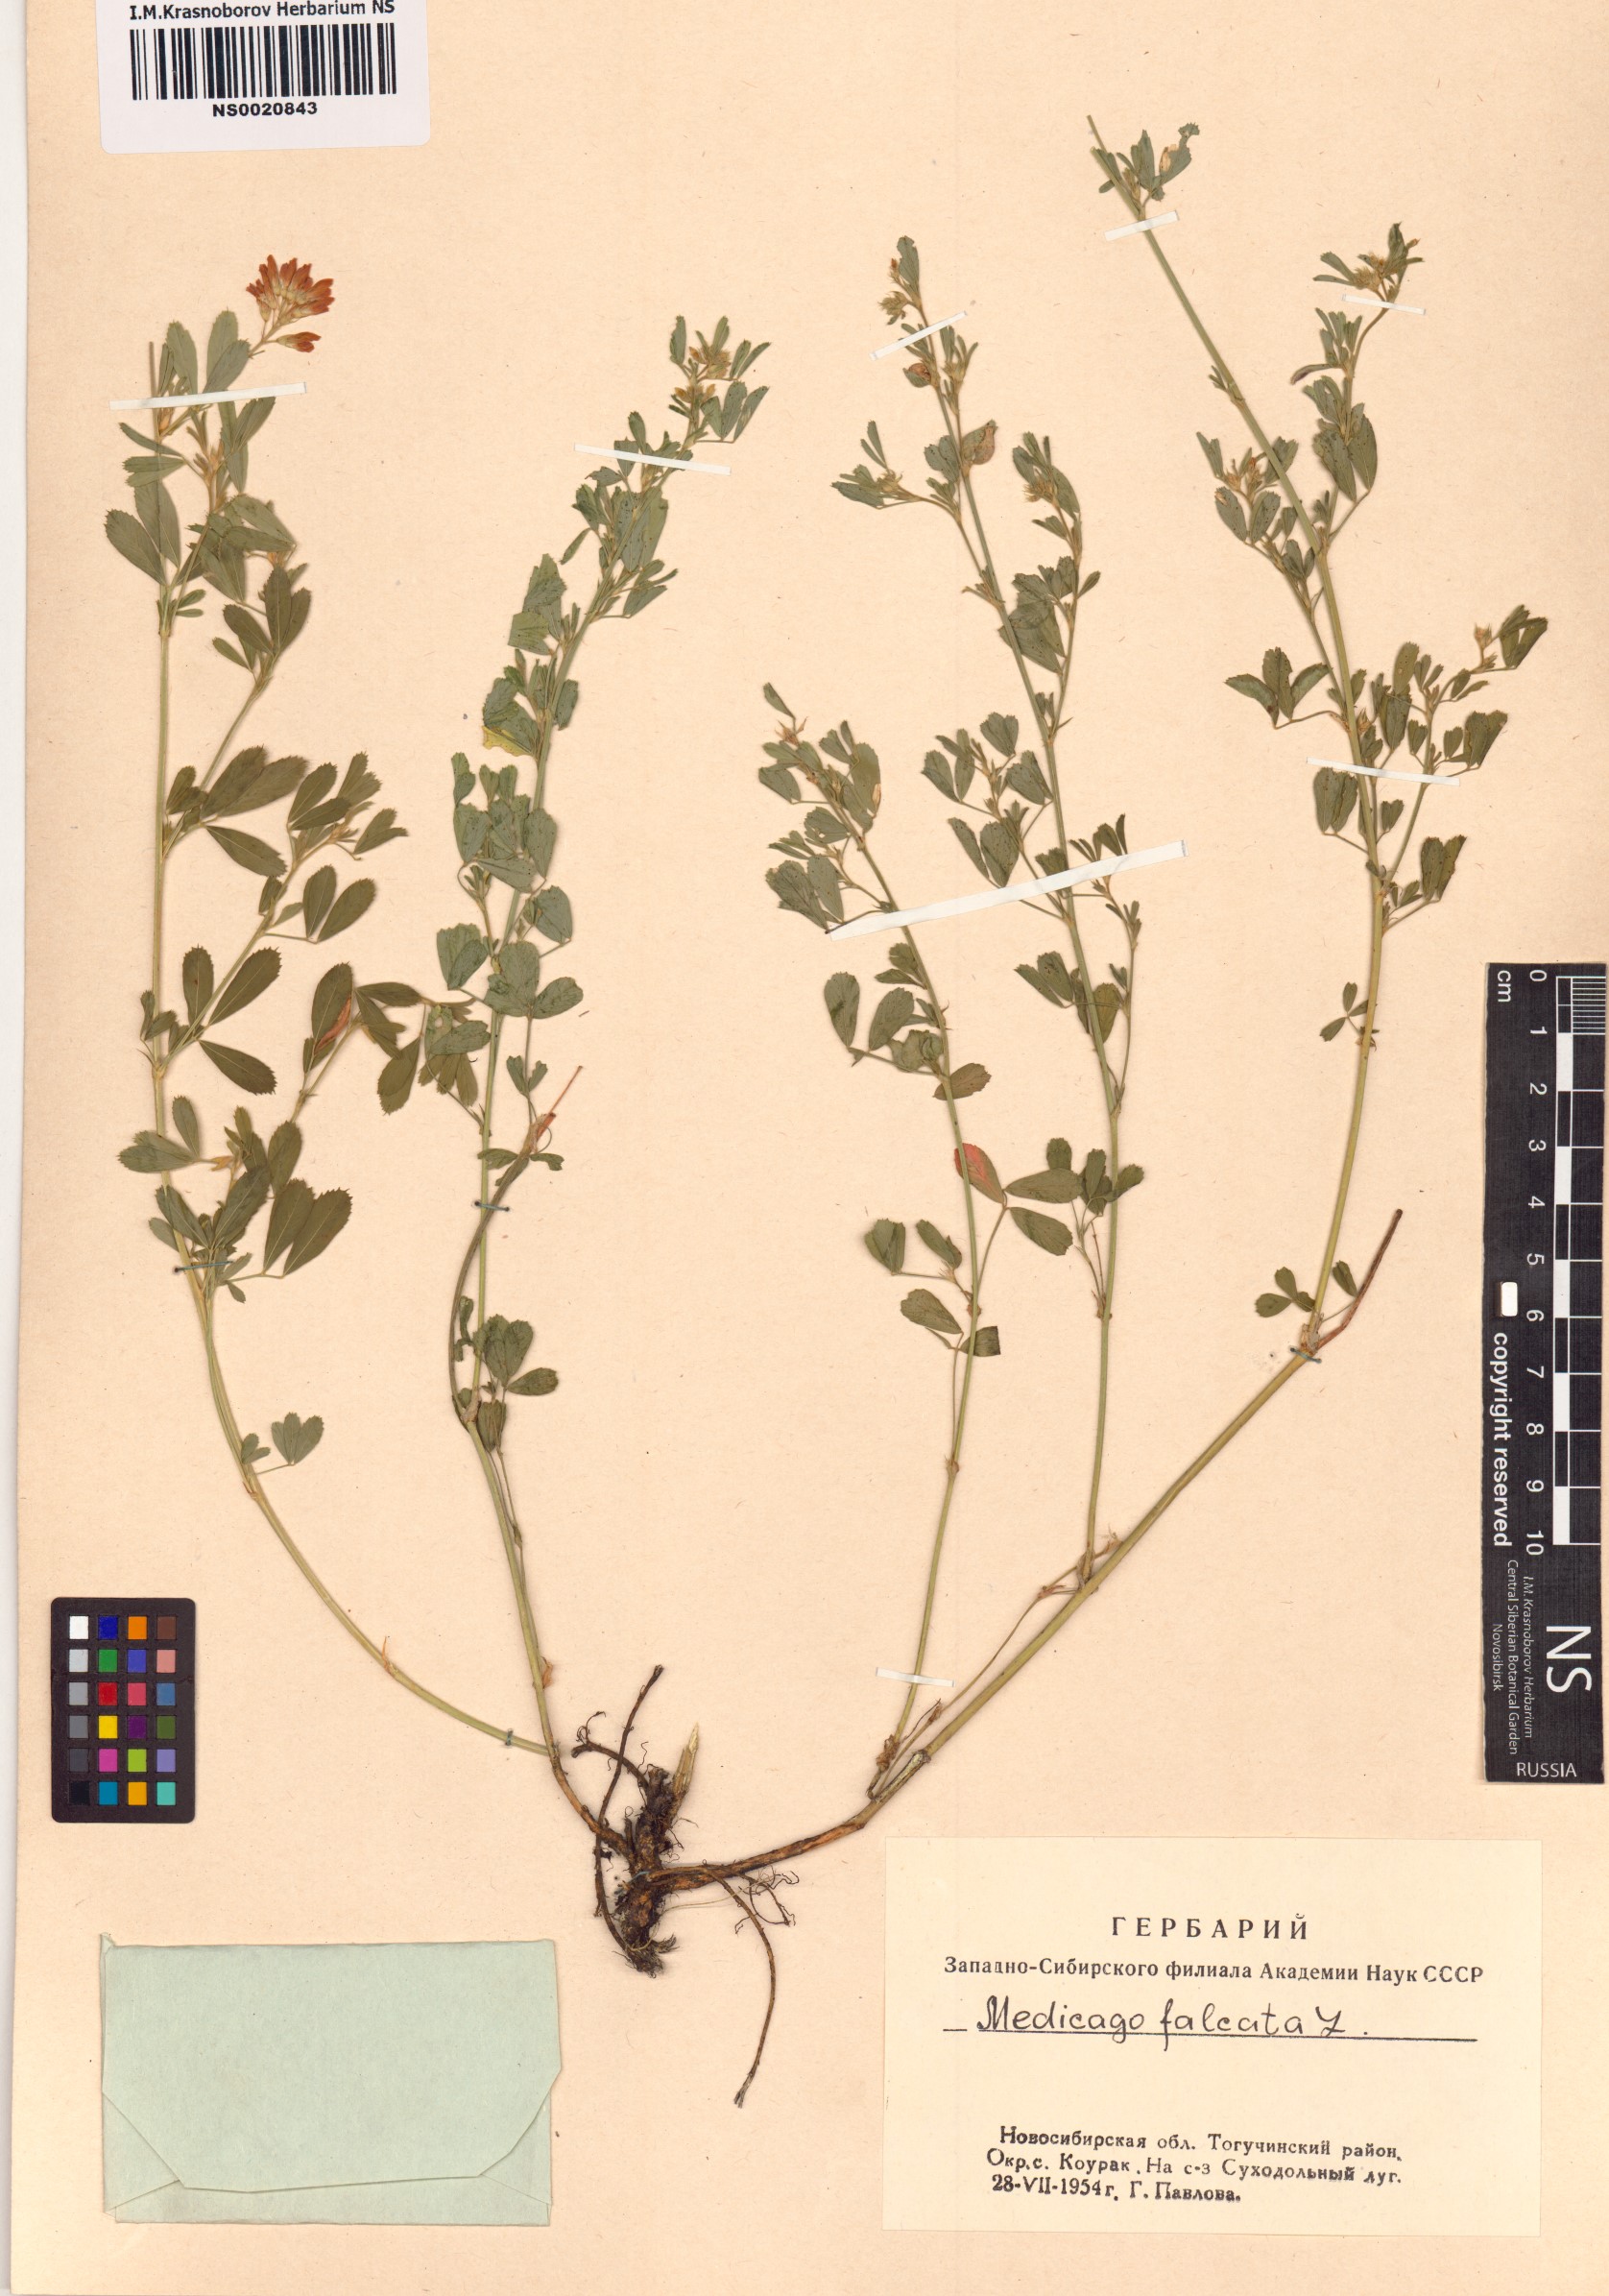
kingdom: Plantae
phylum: Tracheophyta
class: Magnoliopsida
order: Fabales
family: Fabaceae
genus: Medicago
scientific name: Medicago falcata
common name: Sickle medick
